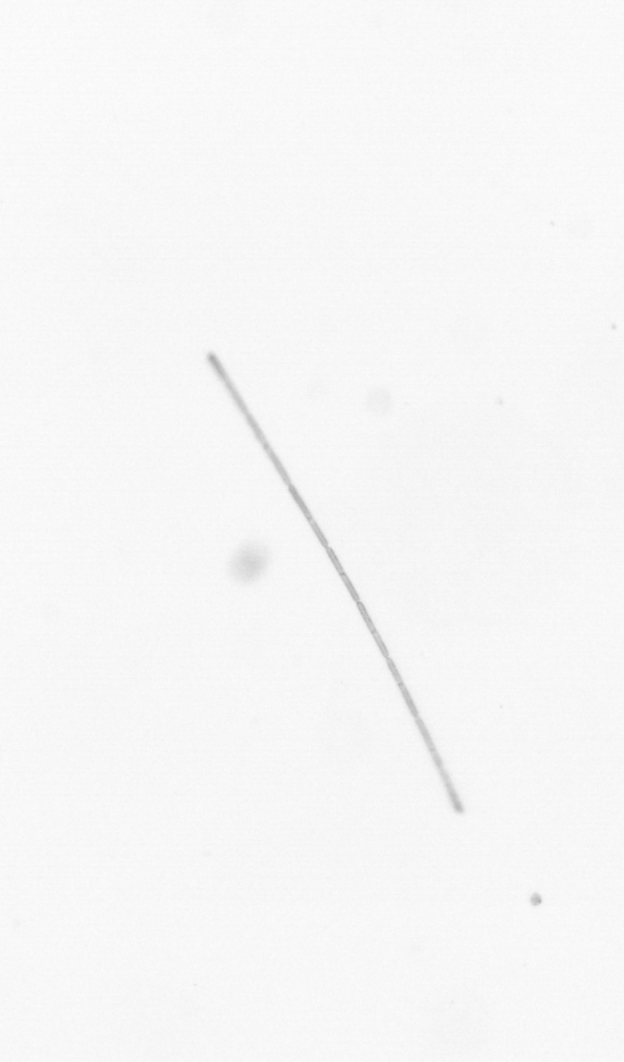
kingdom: Chromista
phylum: Ochrophyta
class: Bacillariophyceae
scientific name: Bacillariophyceae
